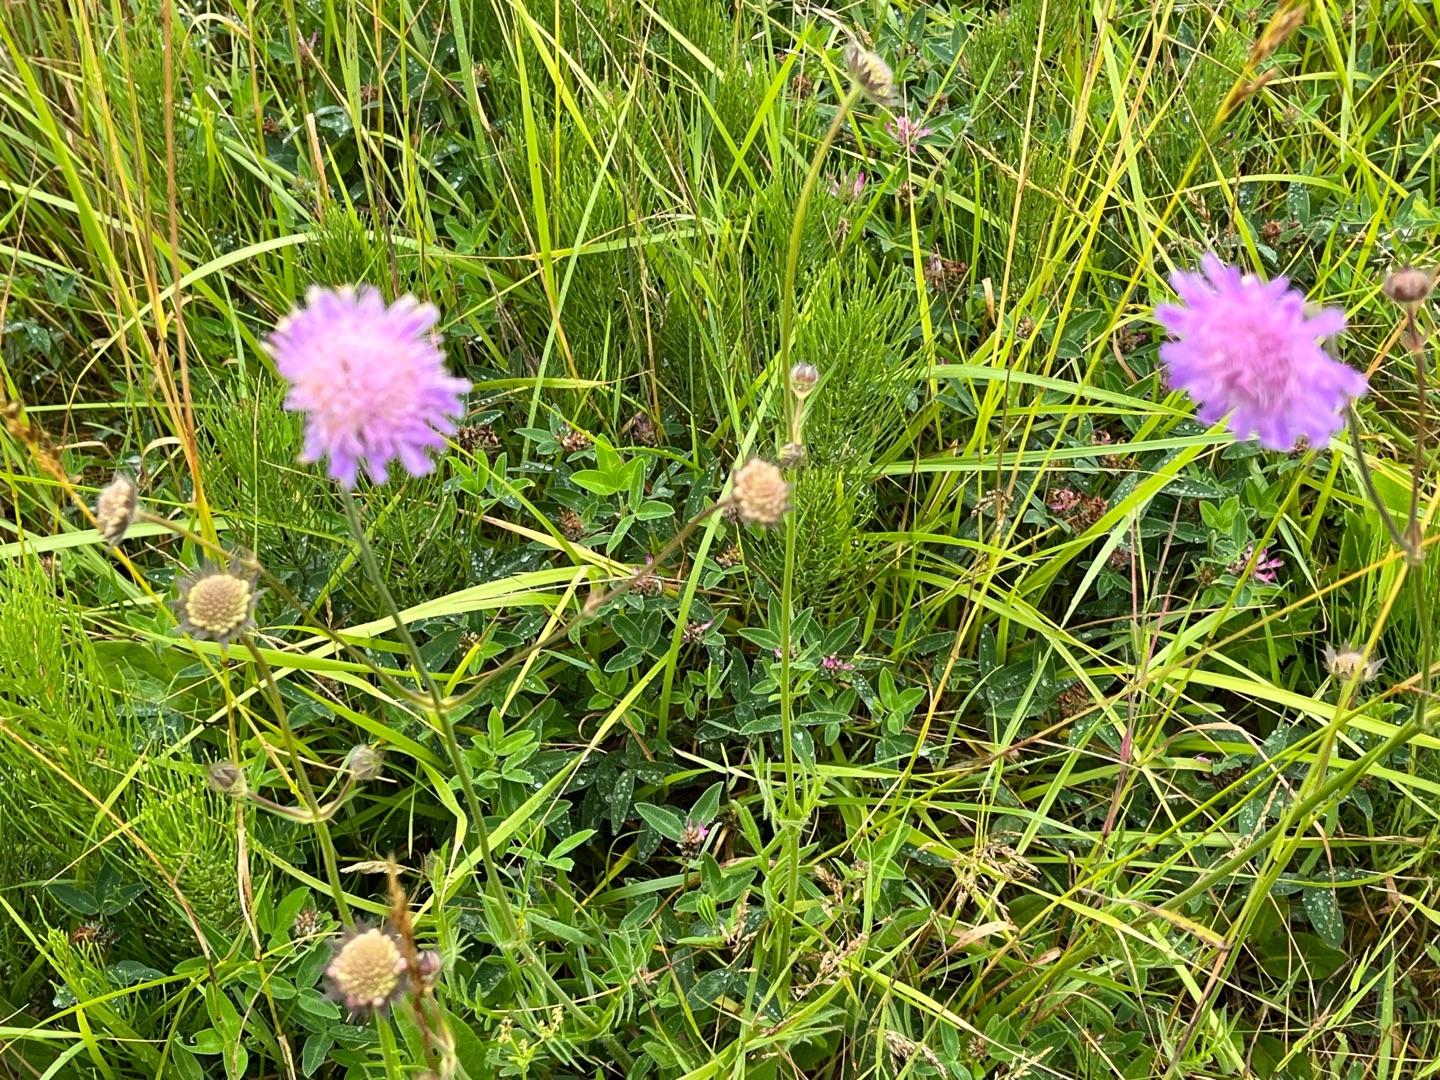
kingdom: Plantae
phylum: Tracheophyta
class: Magnoliopsida
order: Dipsacales
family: Caprifoliaceae
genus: Knautia
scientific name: Knautia arvensis
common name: Blåhat
